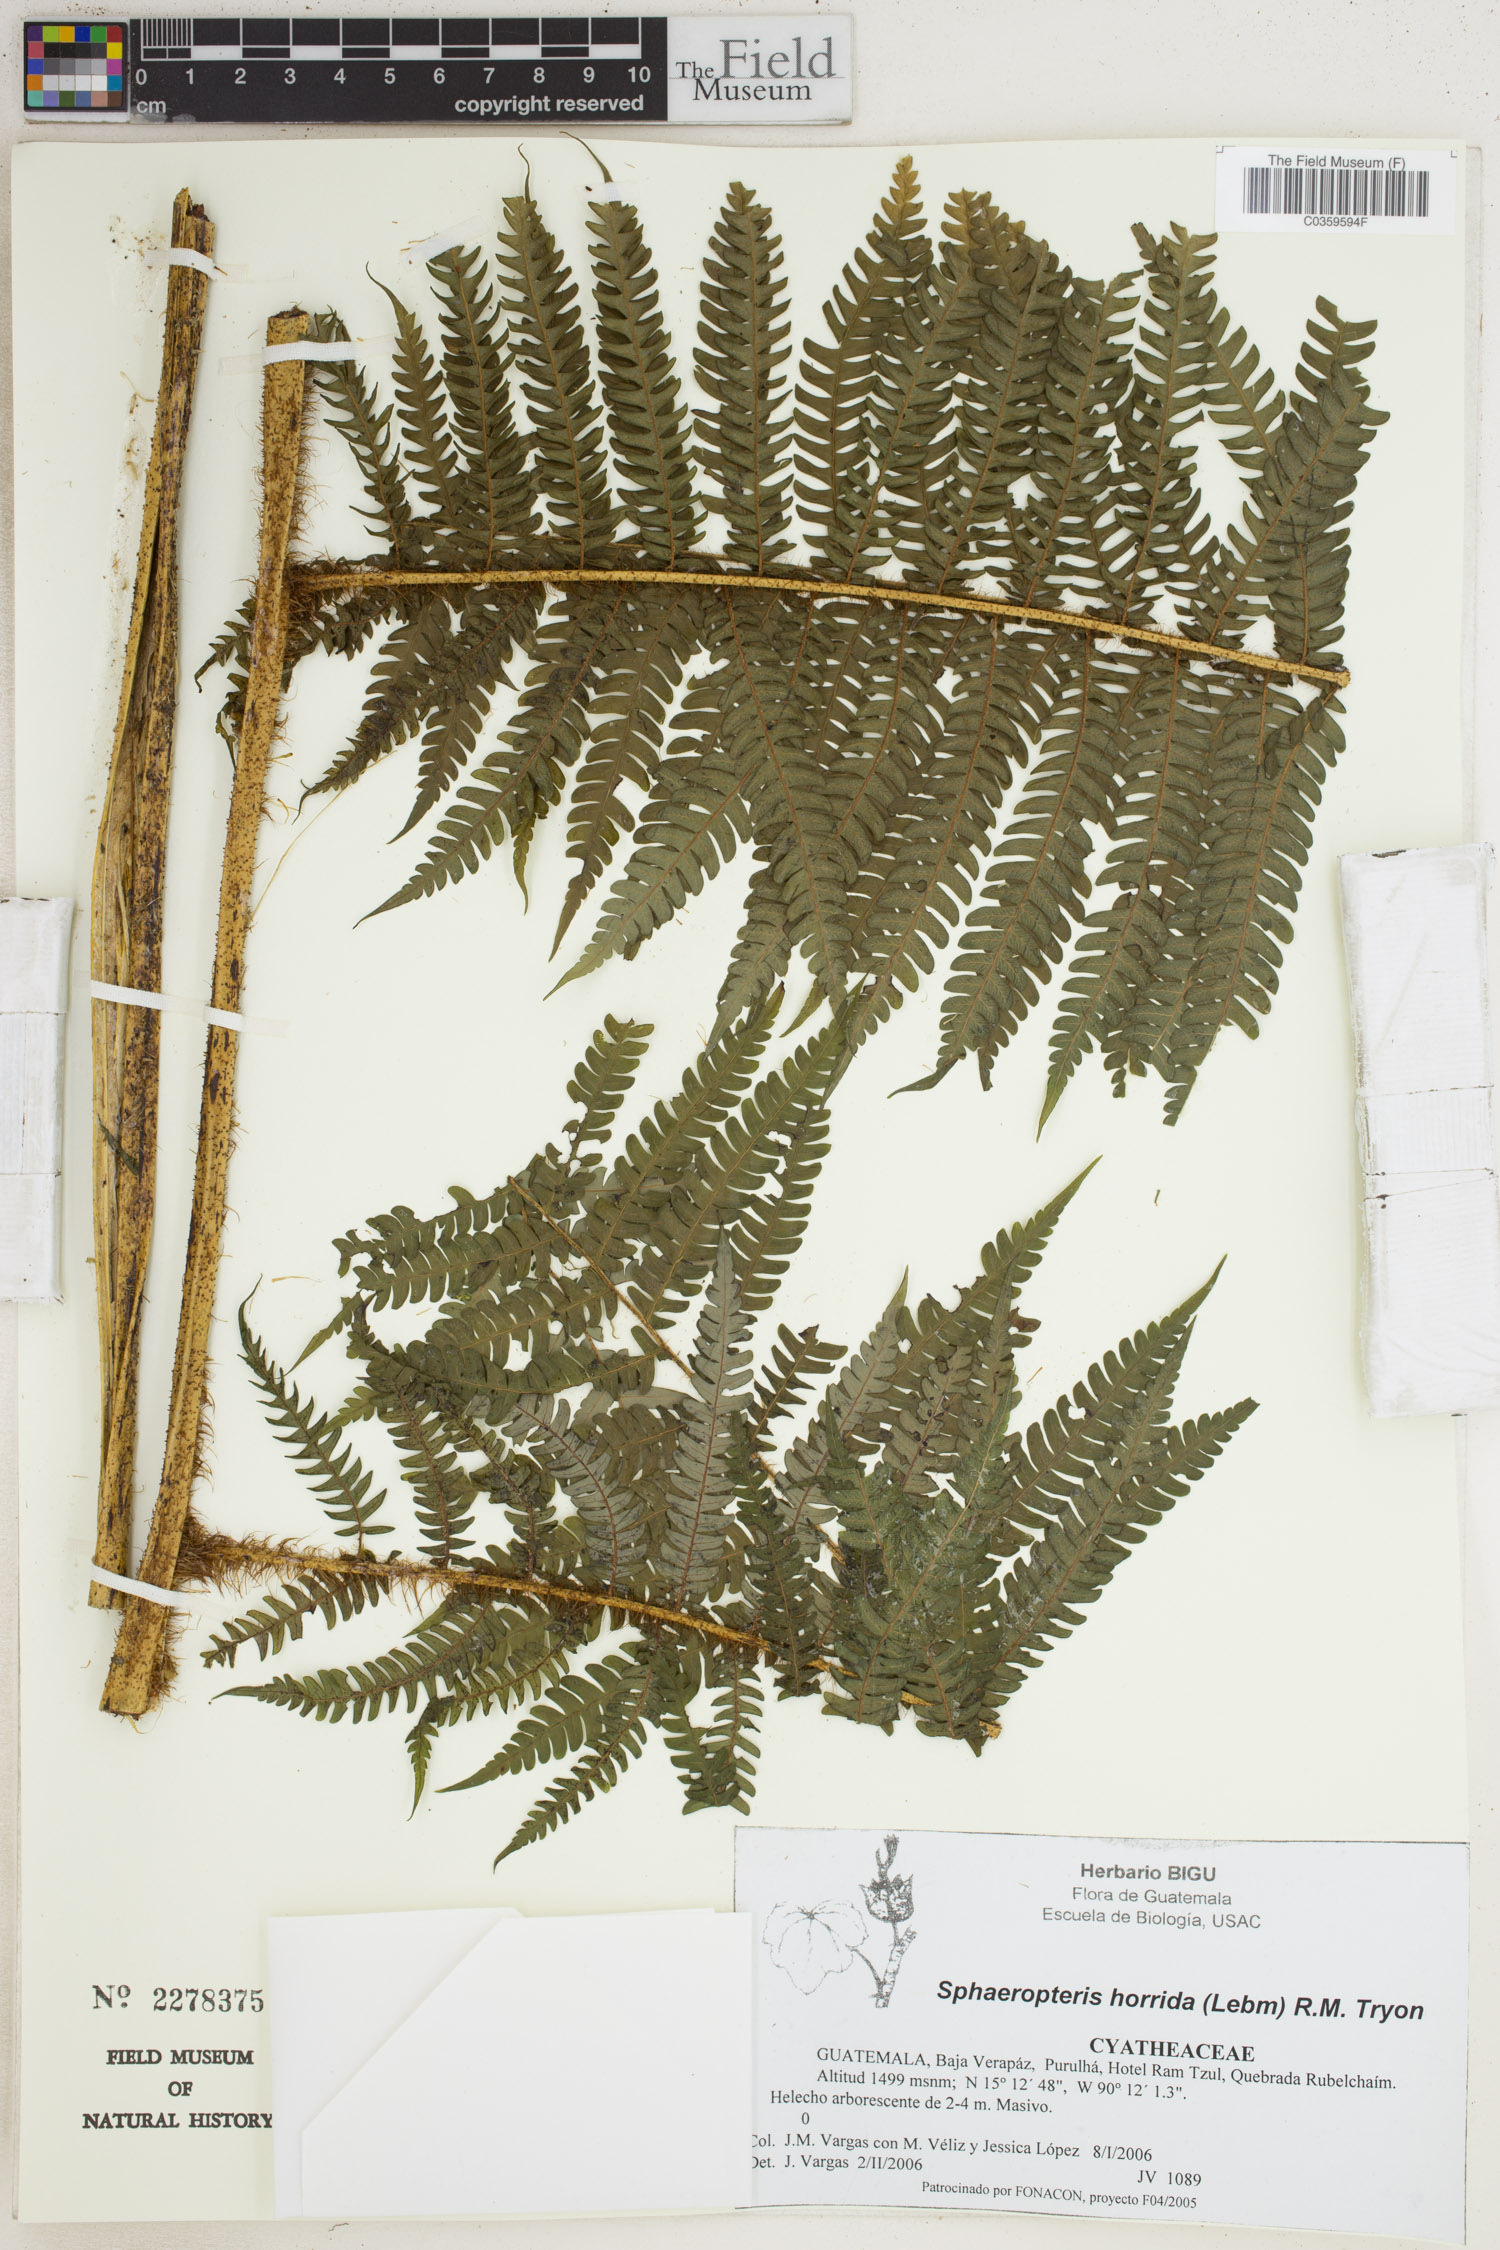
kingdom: Plantae
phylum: Tracheophyta
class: Polypodiopsida
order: Cyatheales
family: Cyatheaceae
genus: Sphaeropteris
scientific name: Sphaeropteris horrida
